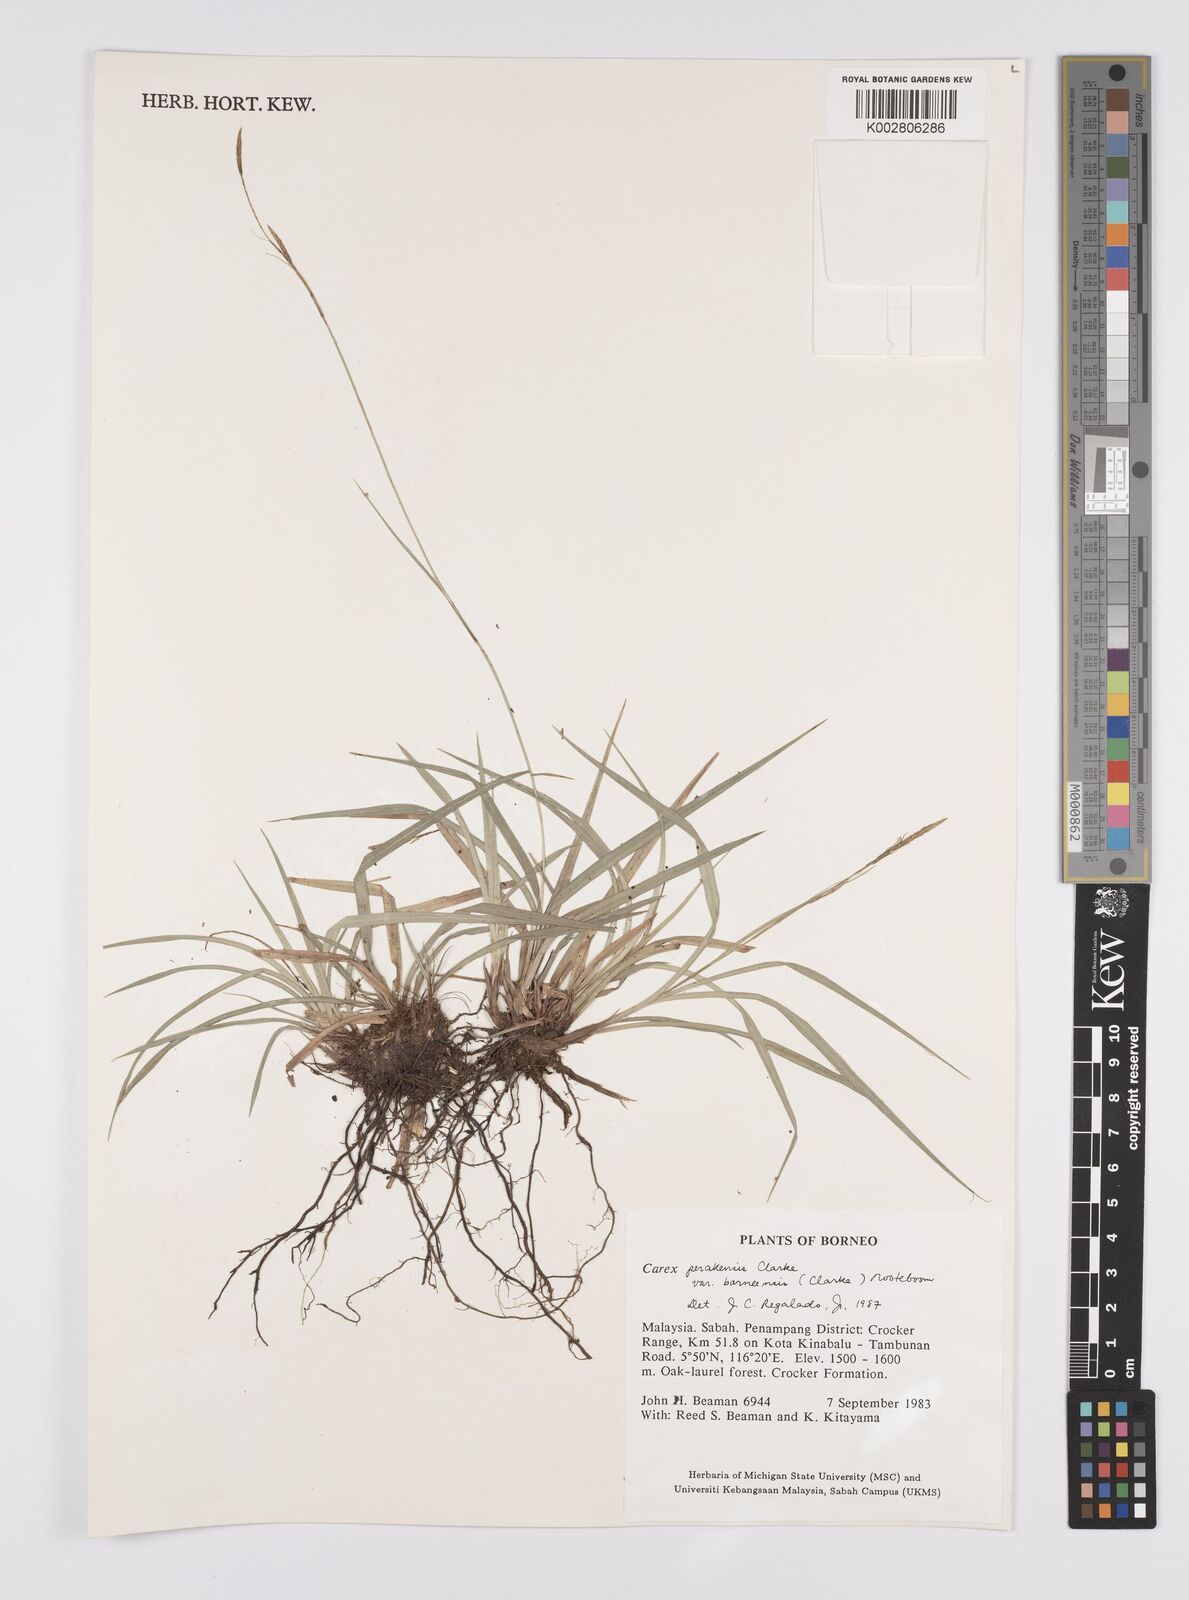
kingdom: Plantae
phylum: Tracheophyta
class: Liliopsida
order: Poales
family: Cyperaceae
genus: Carex
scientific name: Carex perakensis
